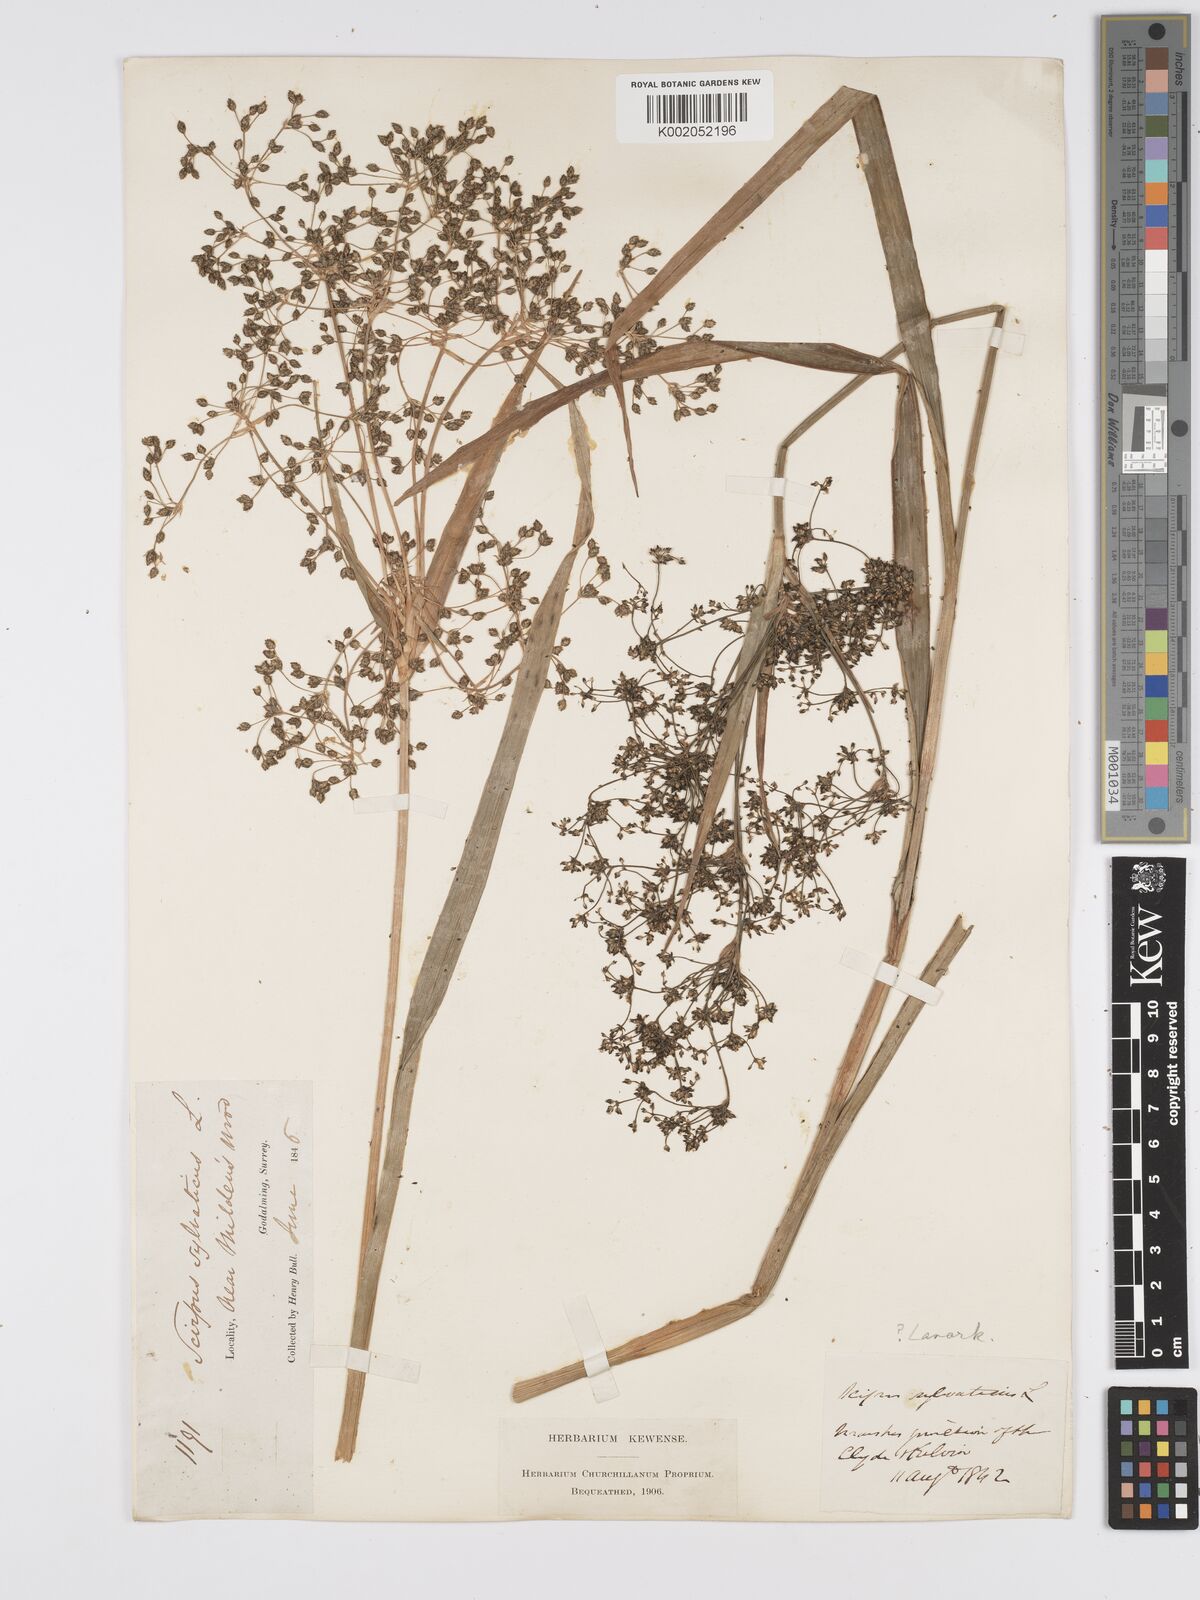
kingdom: Plantae
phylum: Tracheophyta
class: Liliopsida
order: Poales
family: Cyperaceae
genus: Scirpus
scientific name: Scirpus sylvaticus
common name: Wood club-rush
